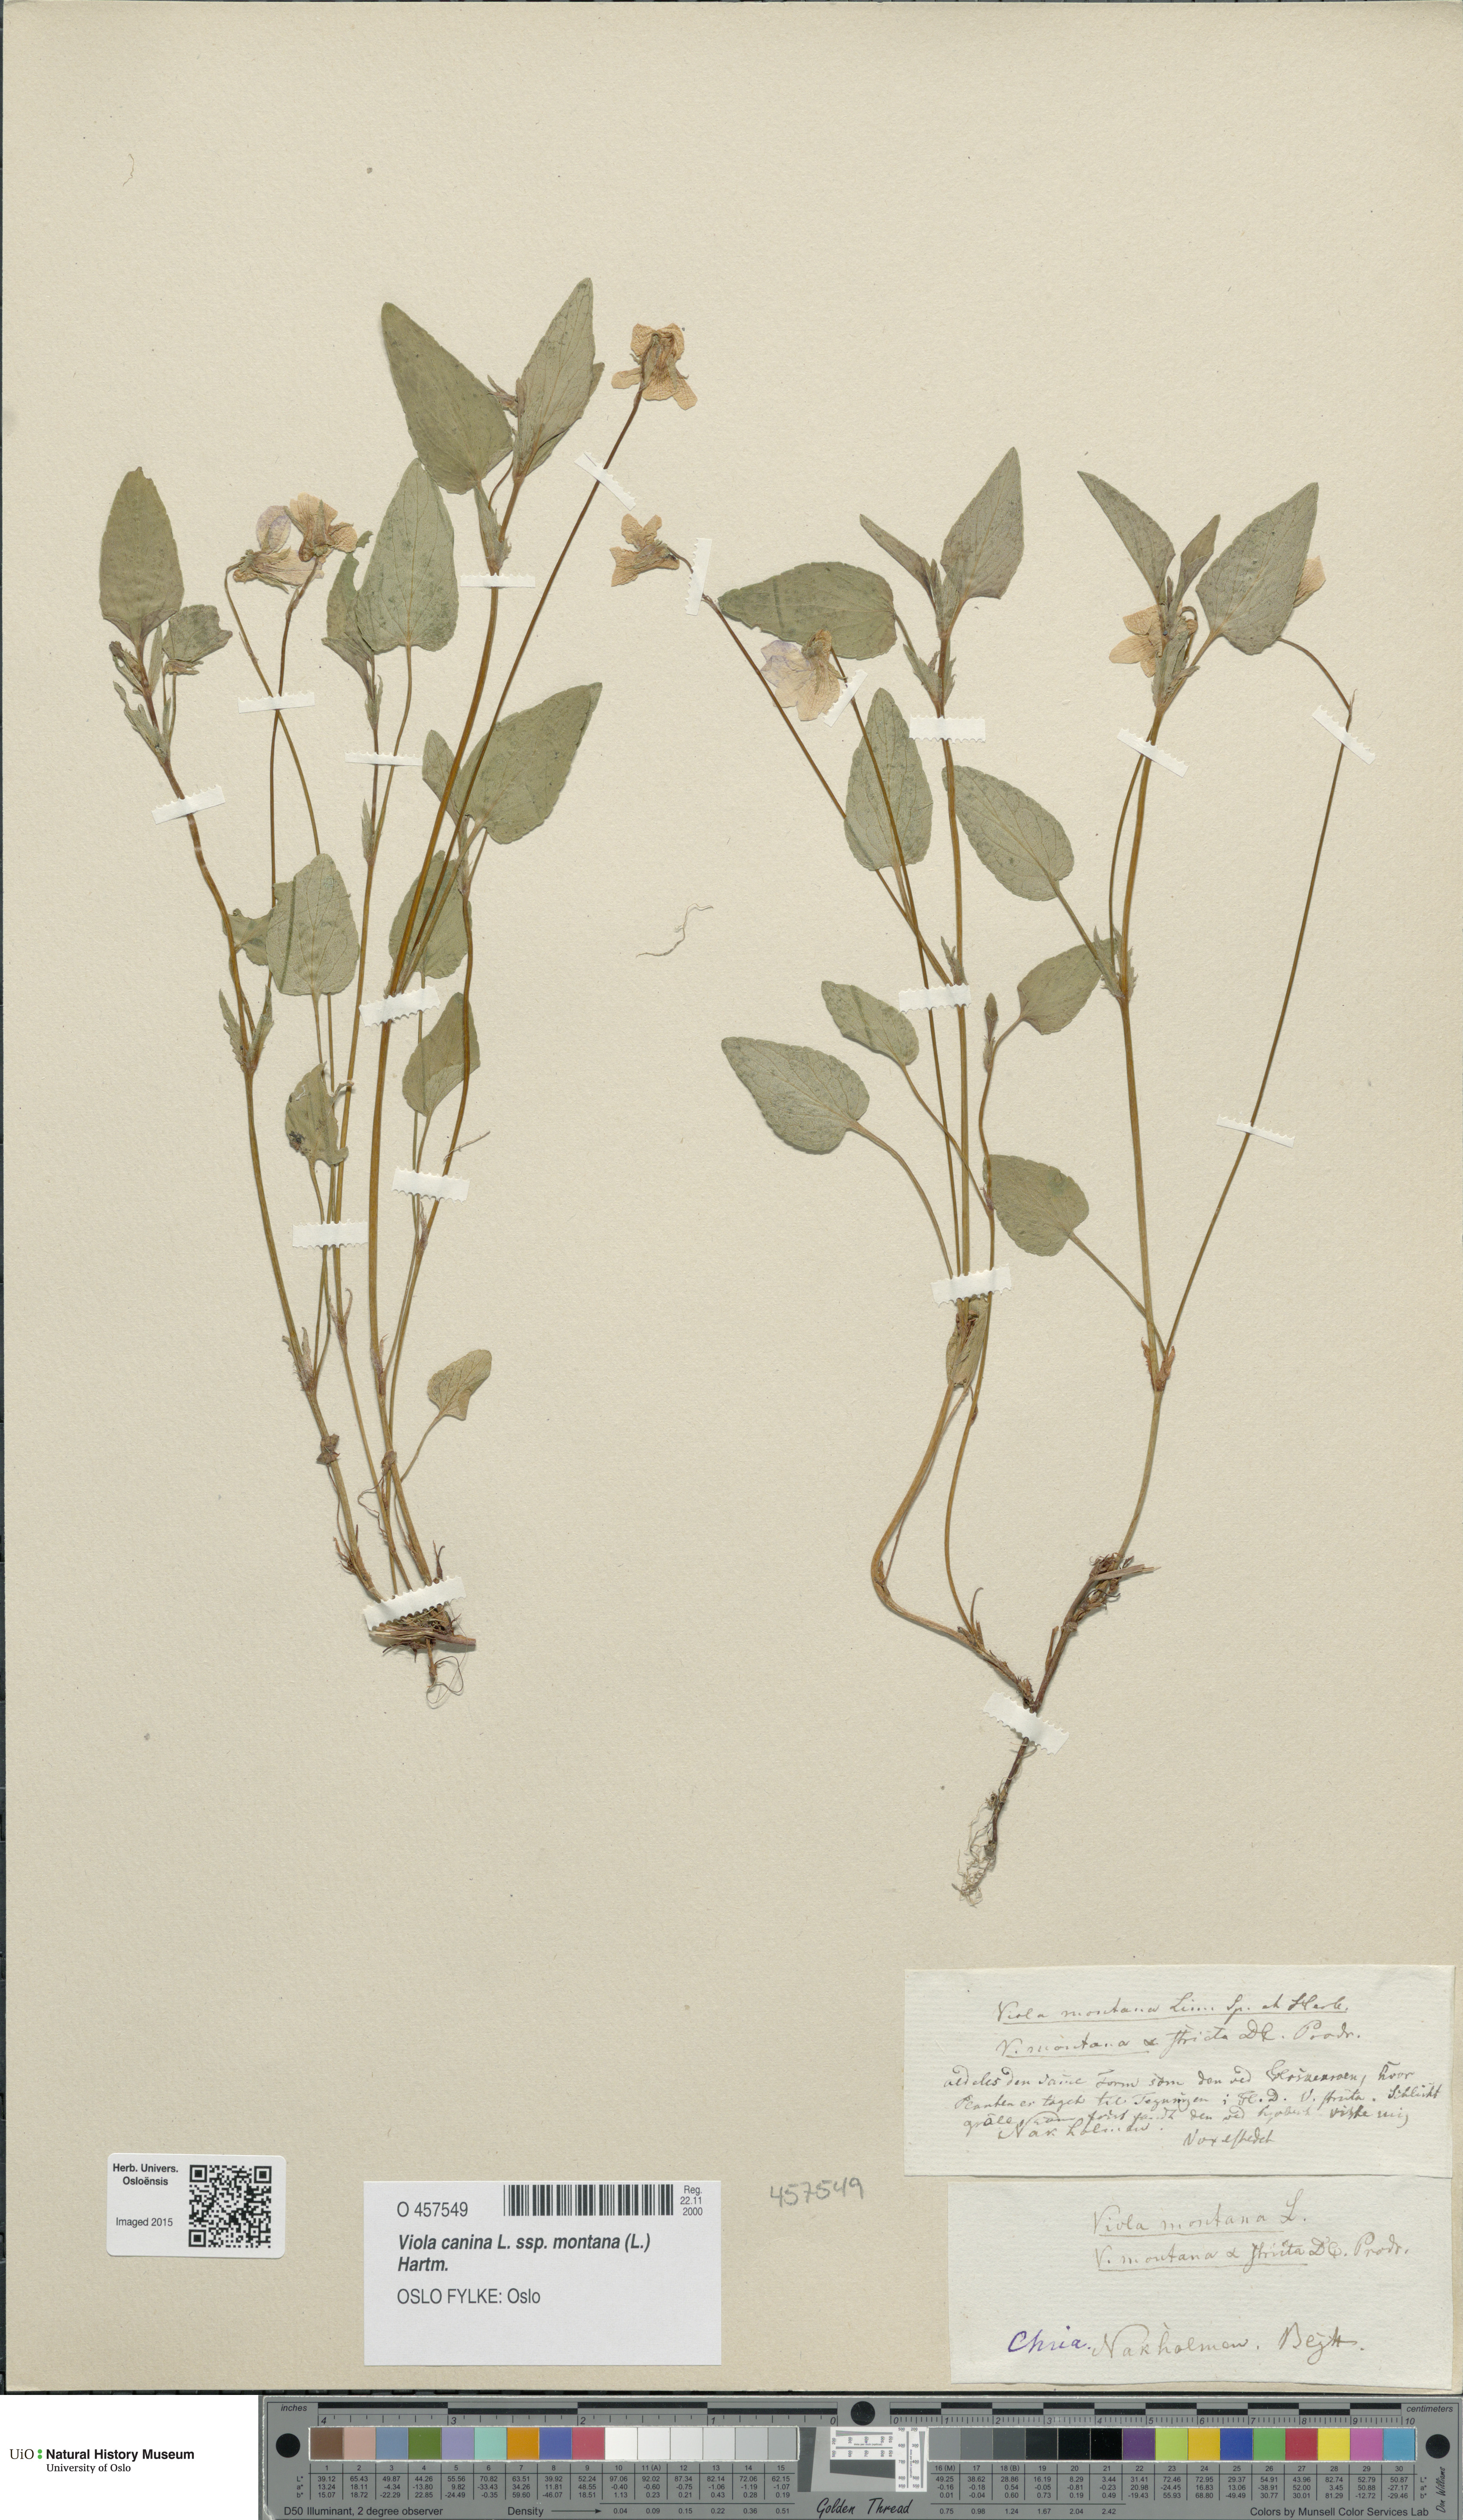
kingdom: Plantae
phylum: Tracheophyta
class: Magnoliopsida
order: Malpighiales
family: Violaceae
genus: Viola
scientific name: Viola ruppii
